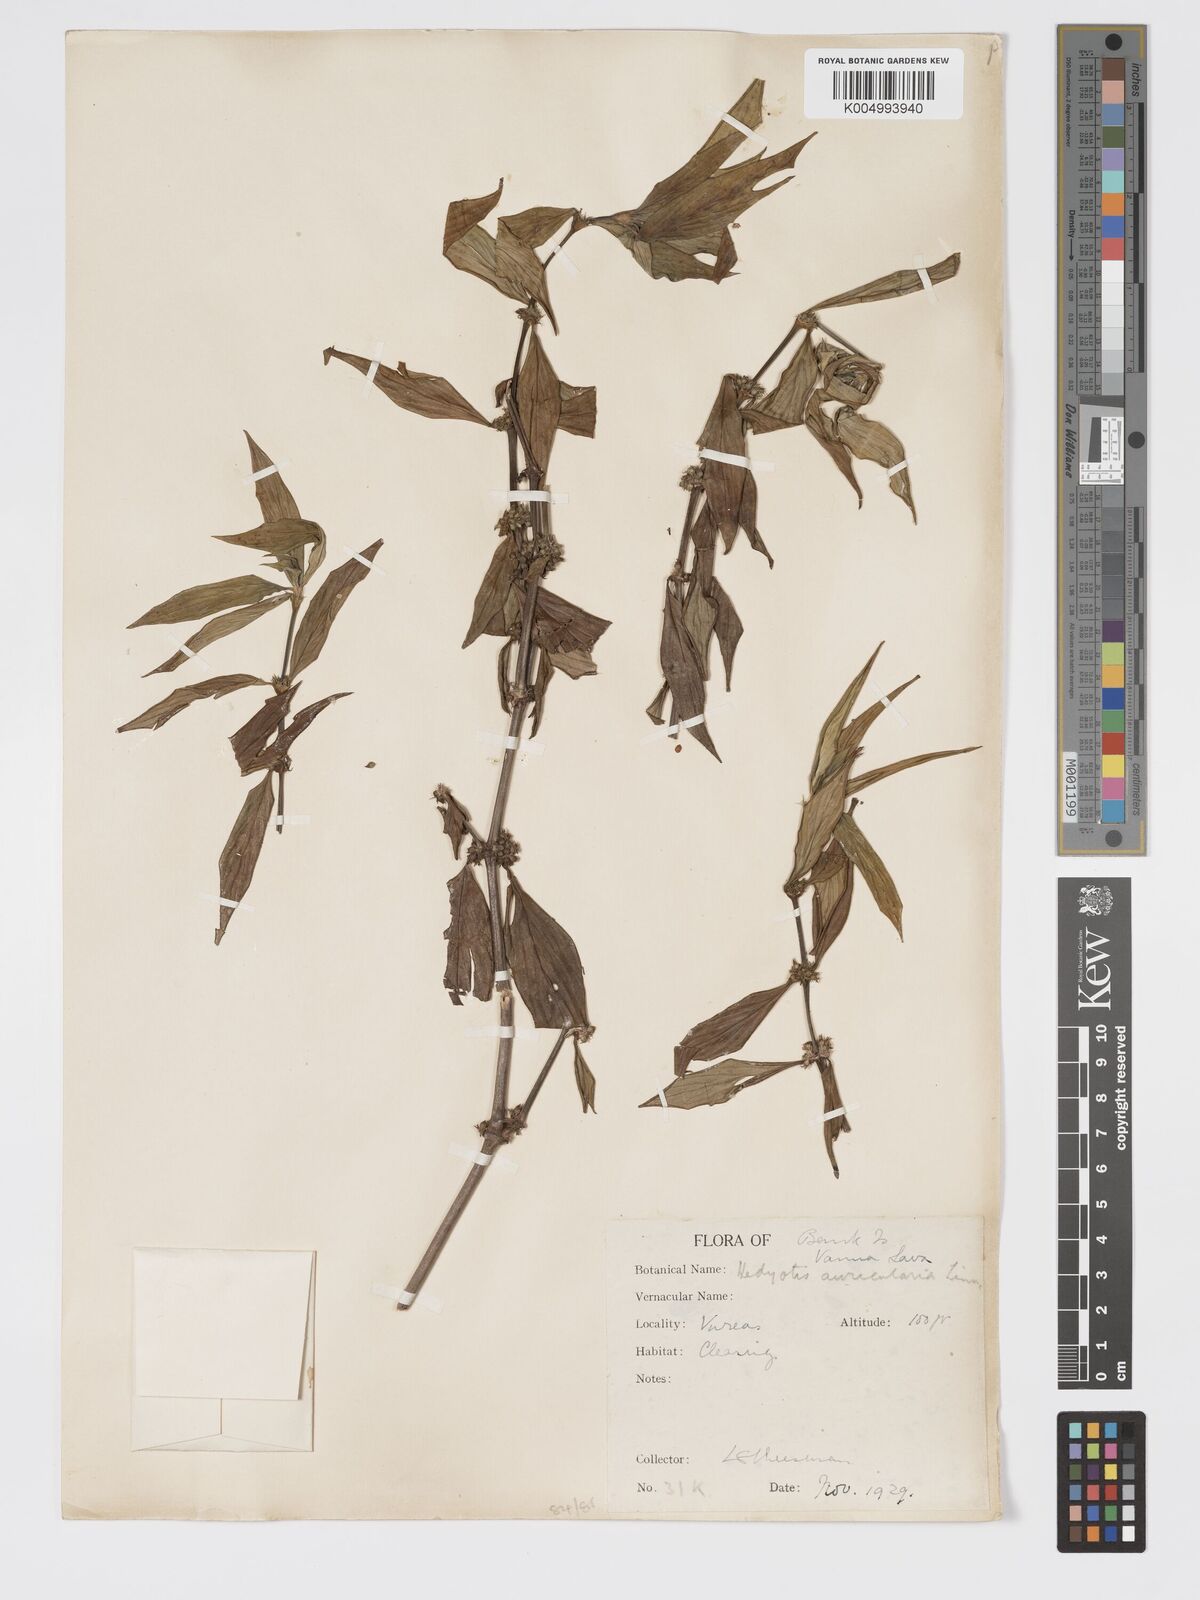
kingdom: Plantae
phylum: Tracheophyta
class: Magnoliopsida
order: Gentianales
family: Rubiaceae
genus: Exallage
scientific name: Exallage lapeyrousei
